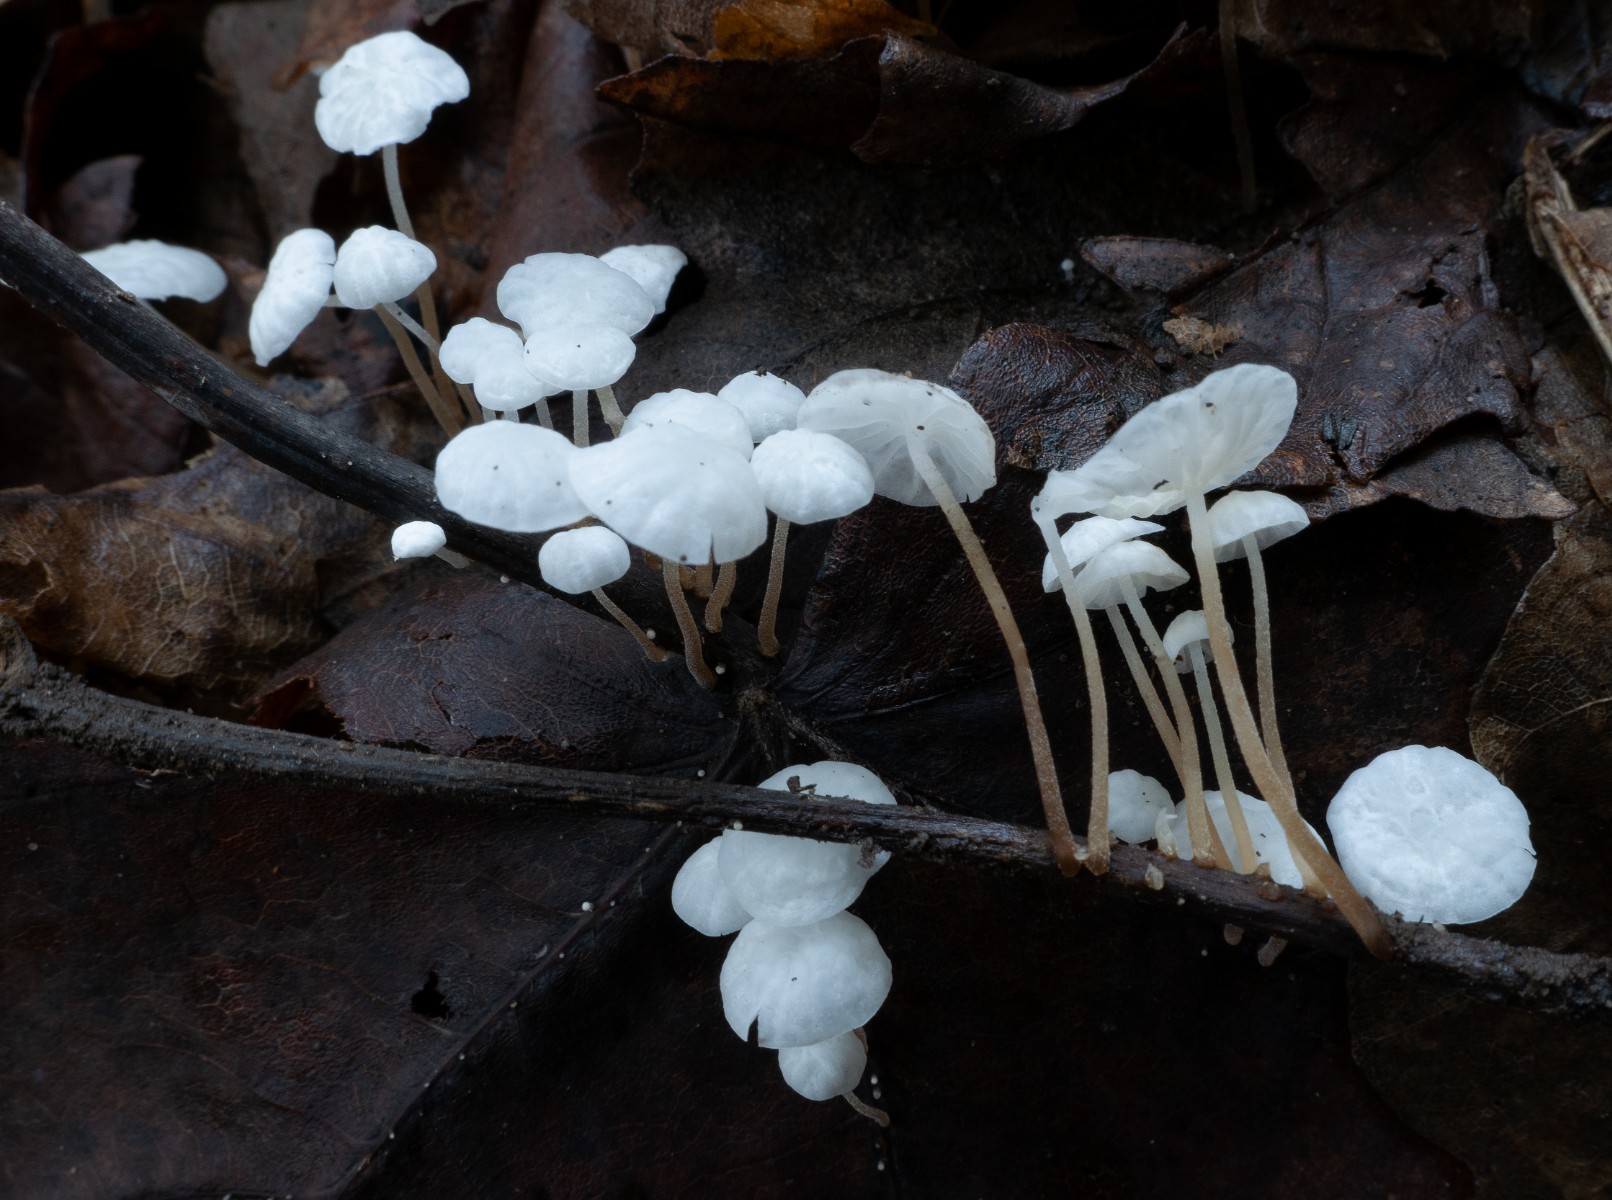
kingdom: Fungi
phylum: Basidiomycota
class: Agaricomycetes
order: Agaricales
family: Marasmiaceae
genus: Marasmius
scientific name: Marasmius epiphyllus
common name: blad-bruskhat
